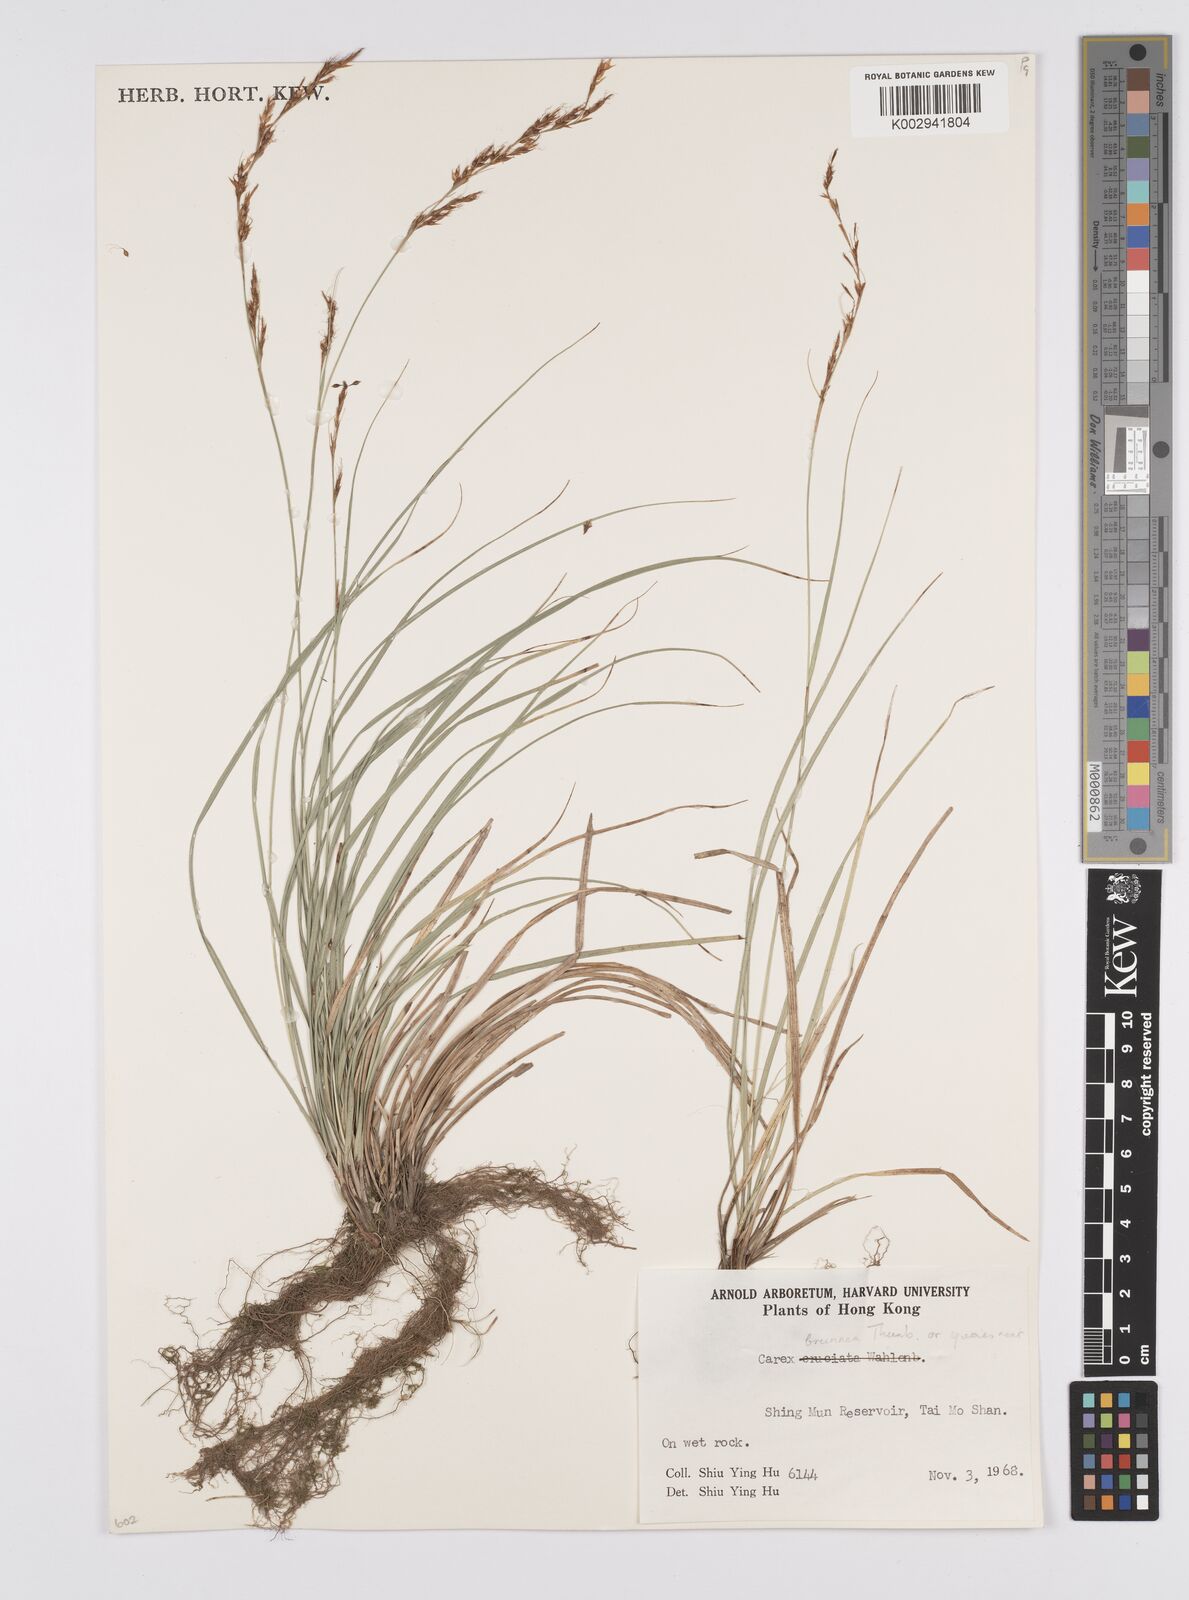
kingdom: Plantae
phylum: Tracheophyta
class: Liliopsida
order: Poales
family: Cyperaceae
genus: Carex
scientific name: Carex brunnea
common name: Greater brown sedge
